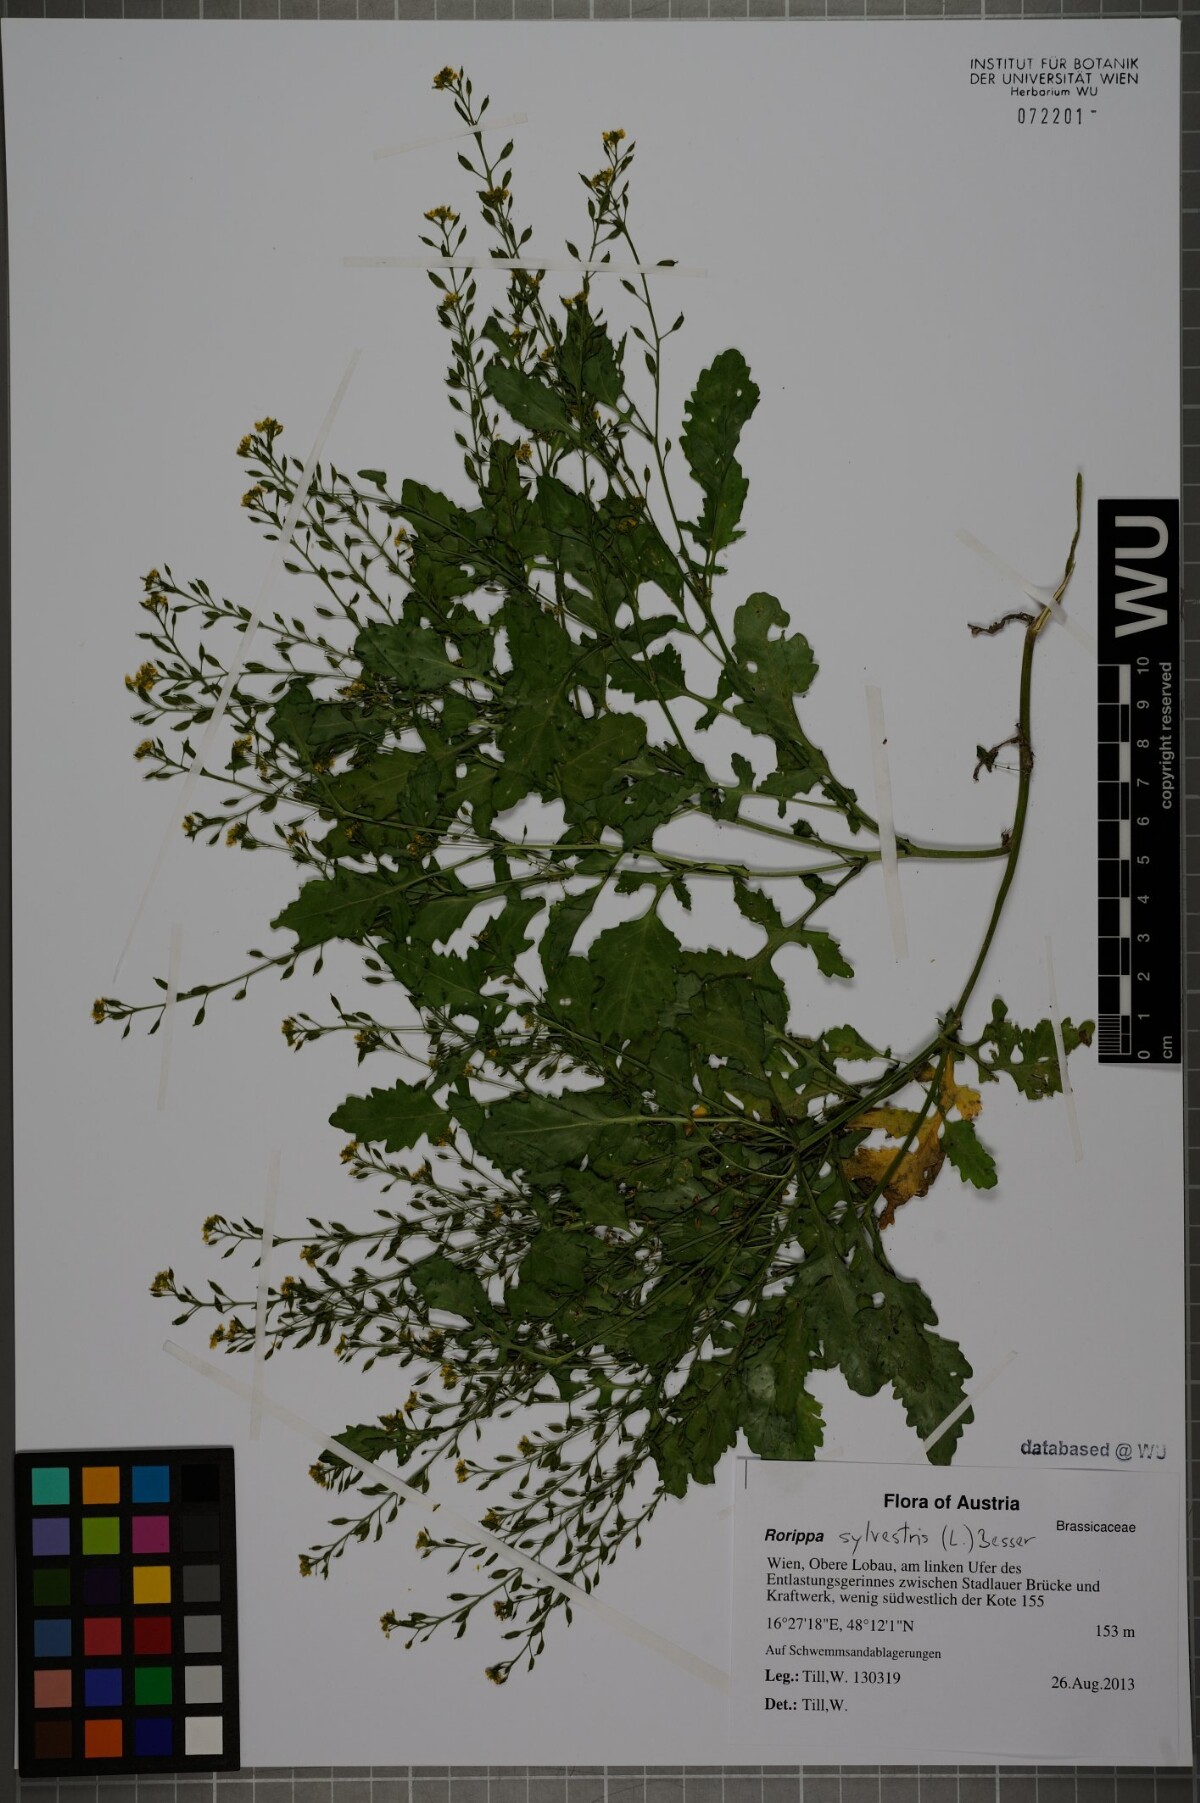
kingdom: Plantae
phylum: Tracheophyta
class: Magnoliopsida
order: Brassicales
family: Brassicaceae
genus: Rorippa
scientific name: Rorippa palustris
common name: Marsh yellow-cress
